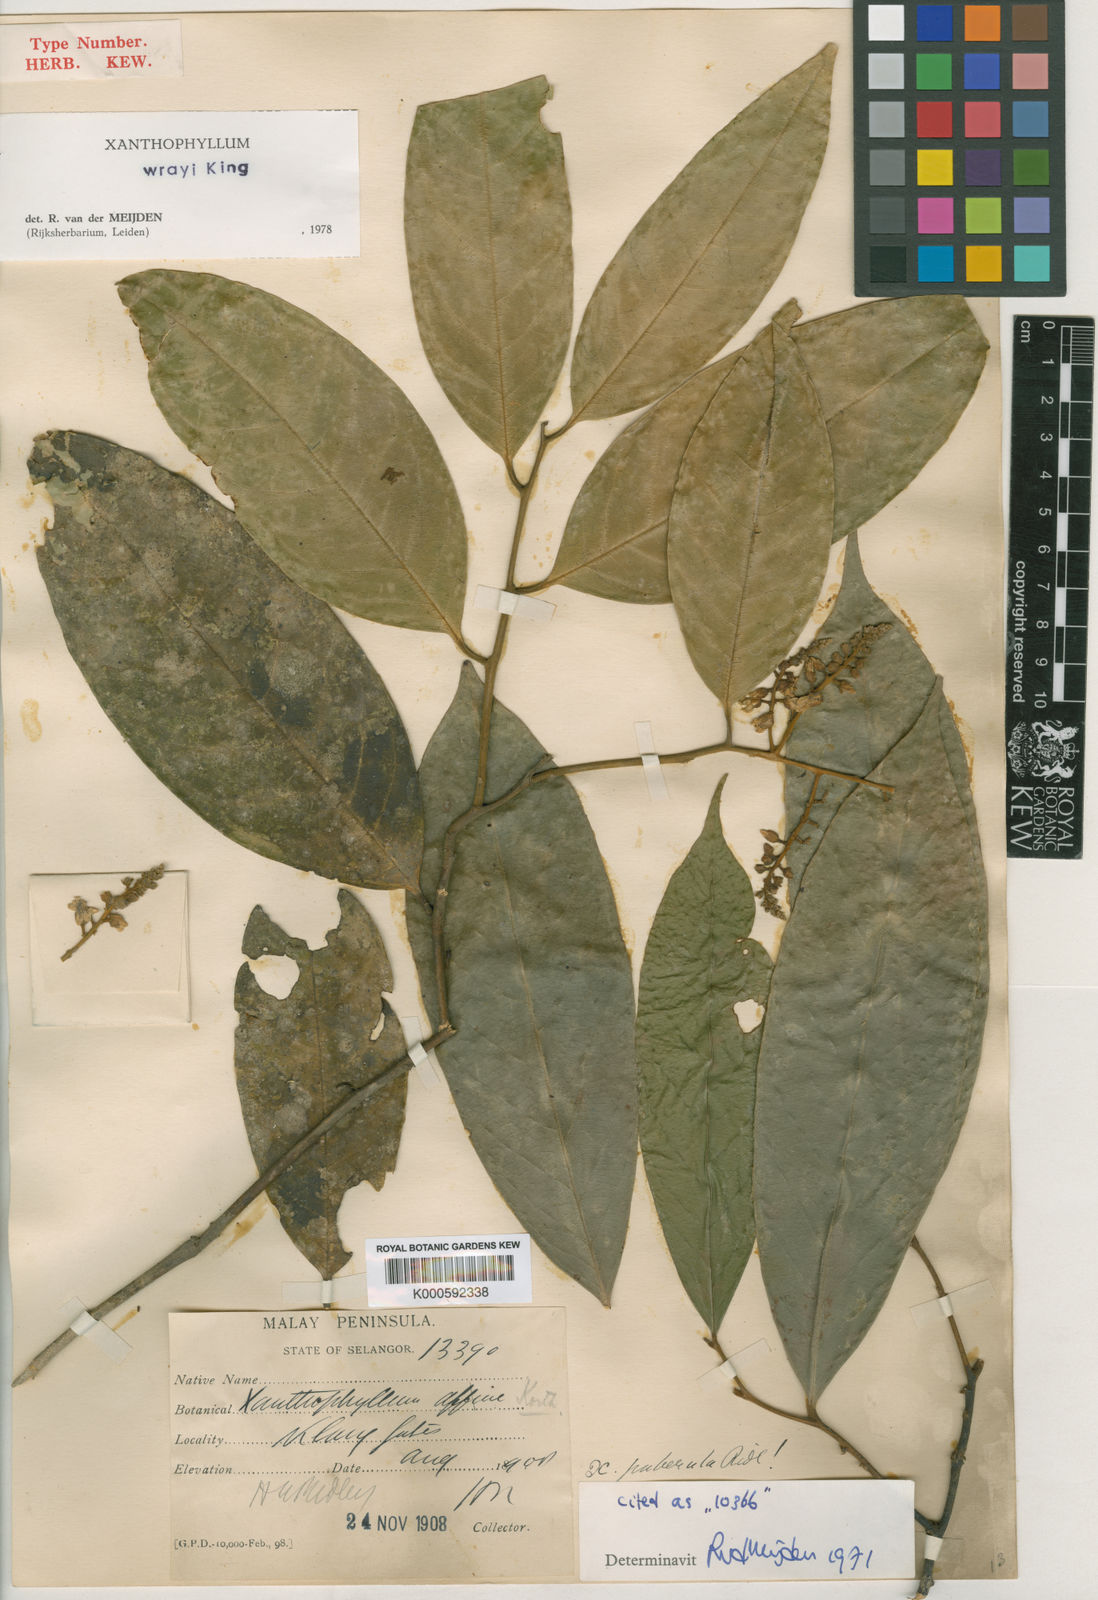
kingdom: Plantae
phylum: Tracheophyta
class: Magnoliopsida
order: Fabales
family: Polygalaceae
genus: Xanthophyllum
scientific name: Xanthophyllum wrayi
